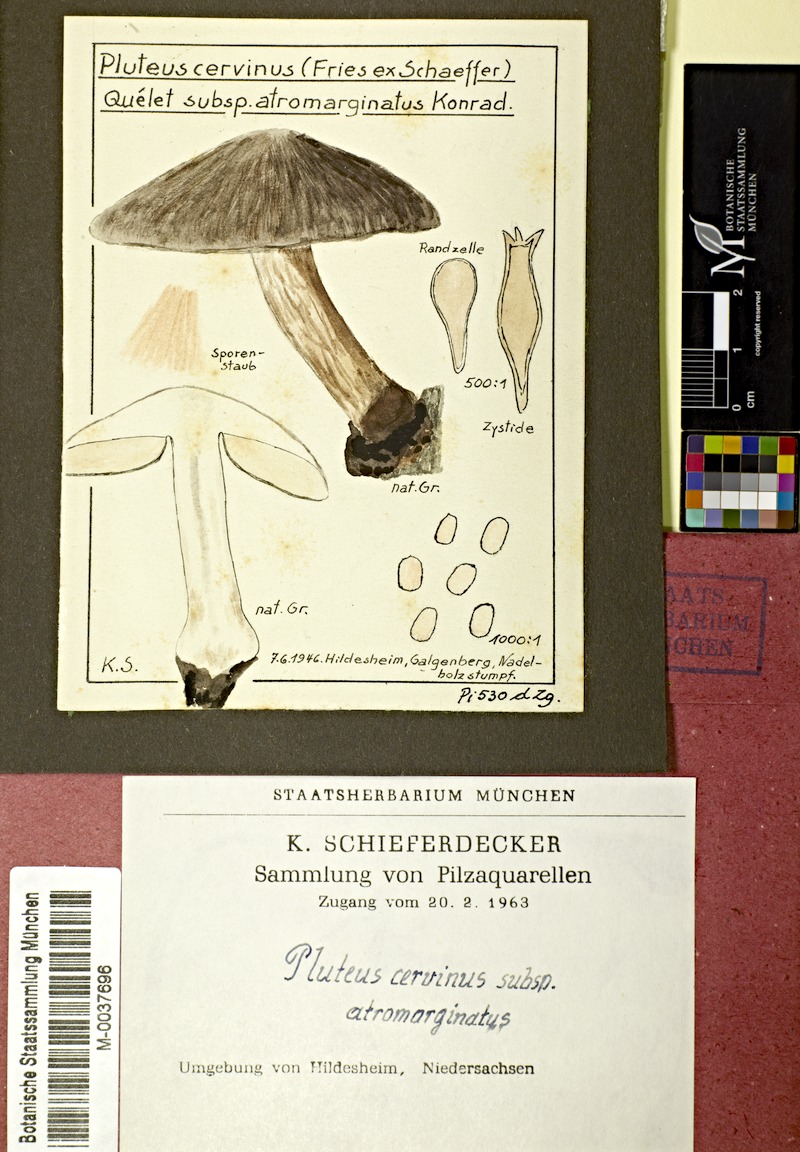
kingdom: Fungi
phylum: Basidiomycota
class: Agaricomycetes
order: Agaricales
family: Pluteaceae
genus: Pluteus
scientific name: Pluteus atromarginatus
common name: Blackedged shield
